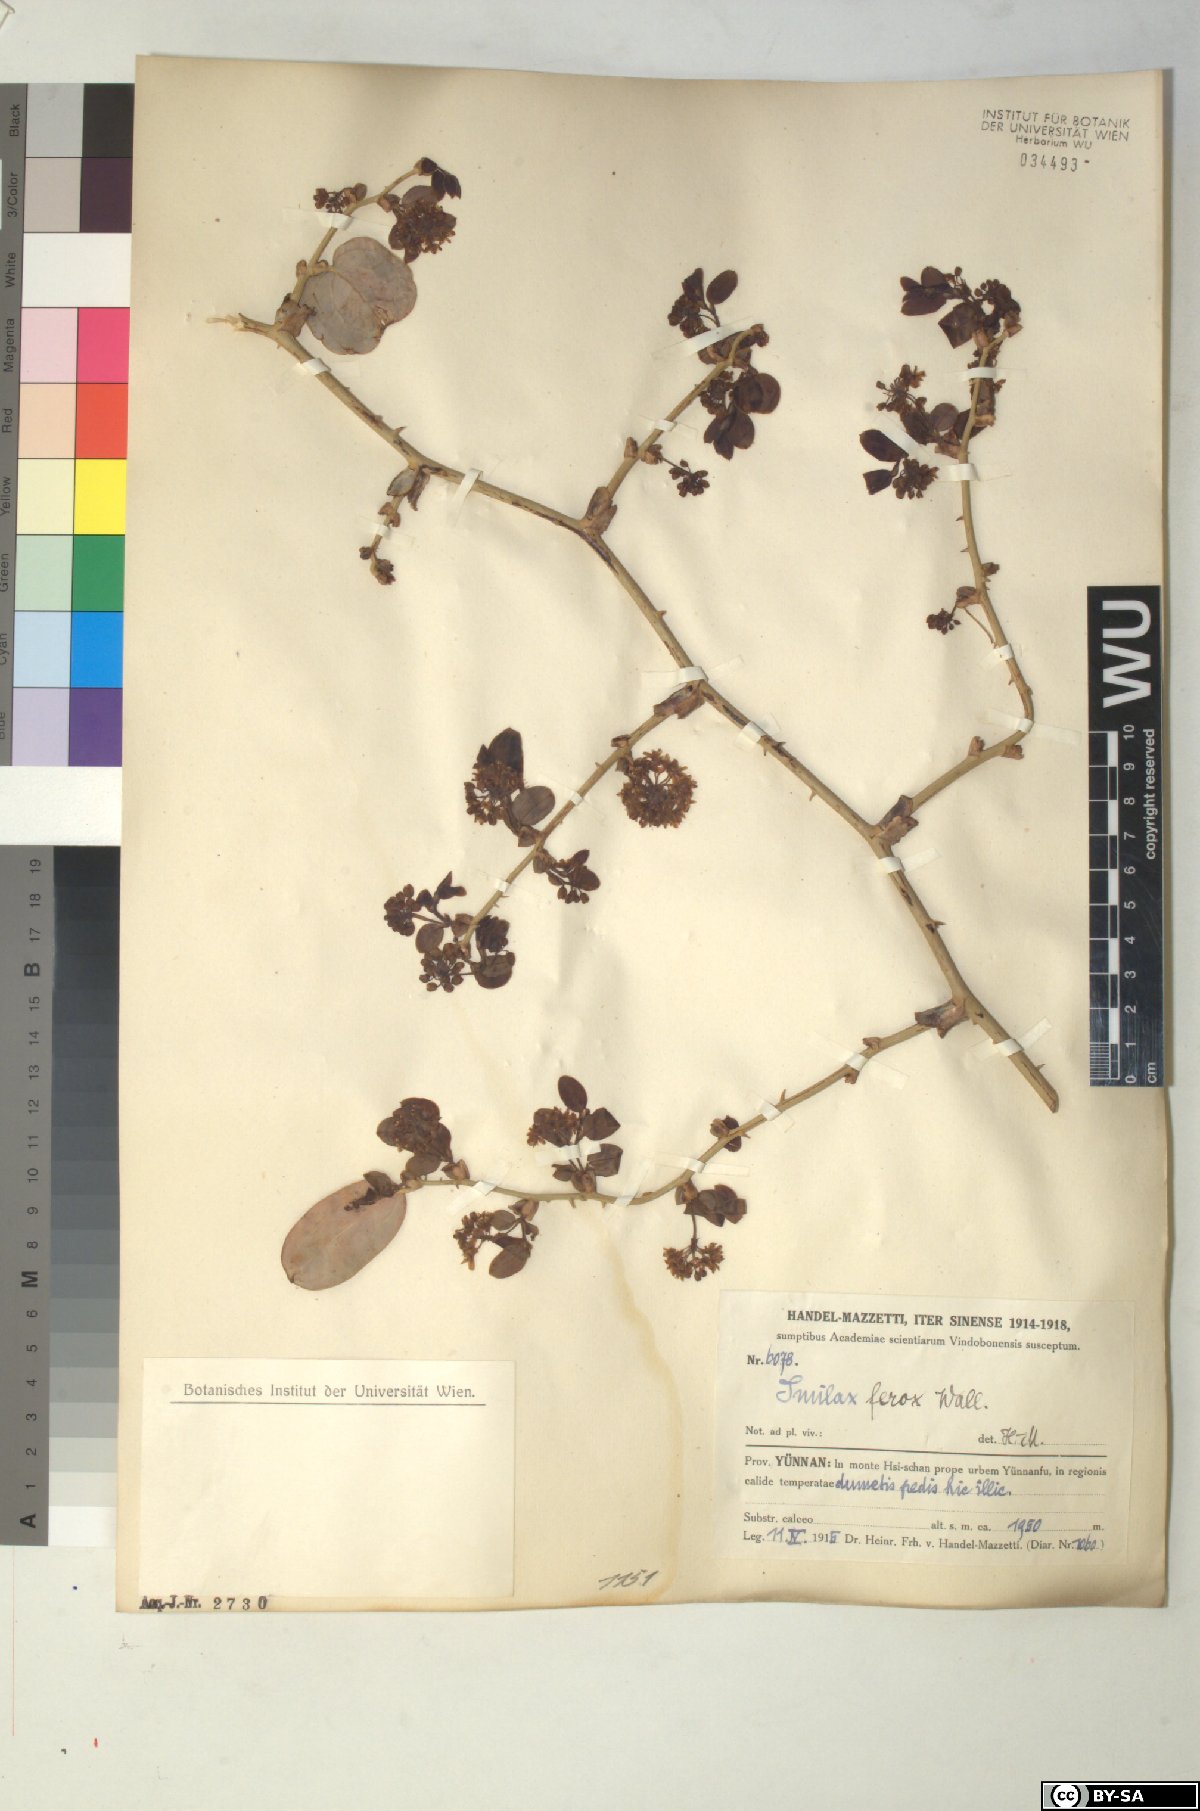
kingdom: Plantae
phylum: Tracheophyta
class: Liliopsida
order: Liliales
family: Smilacaceae
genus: Smilax
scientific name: Smilax ferox
